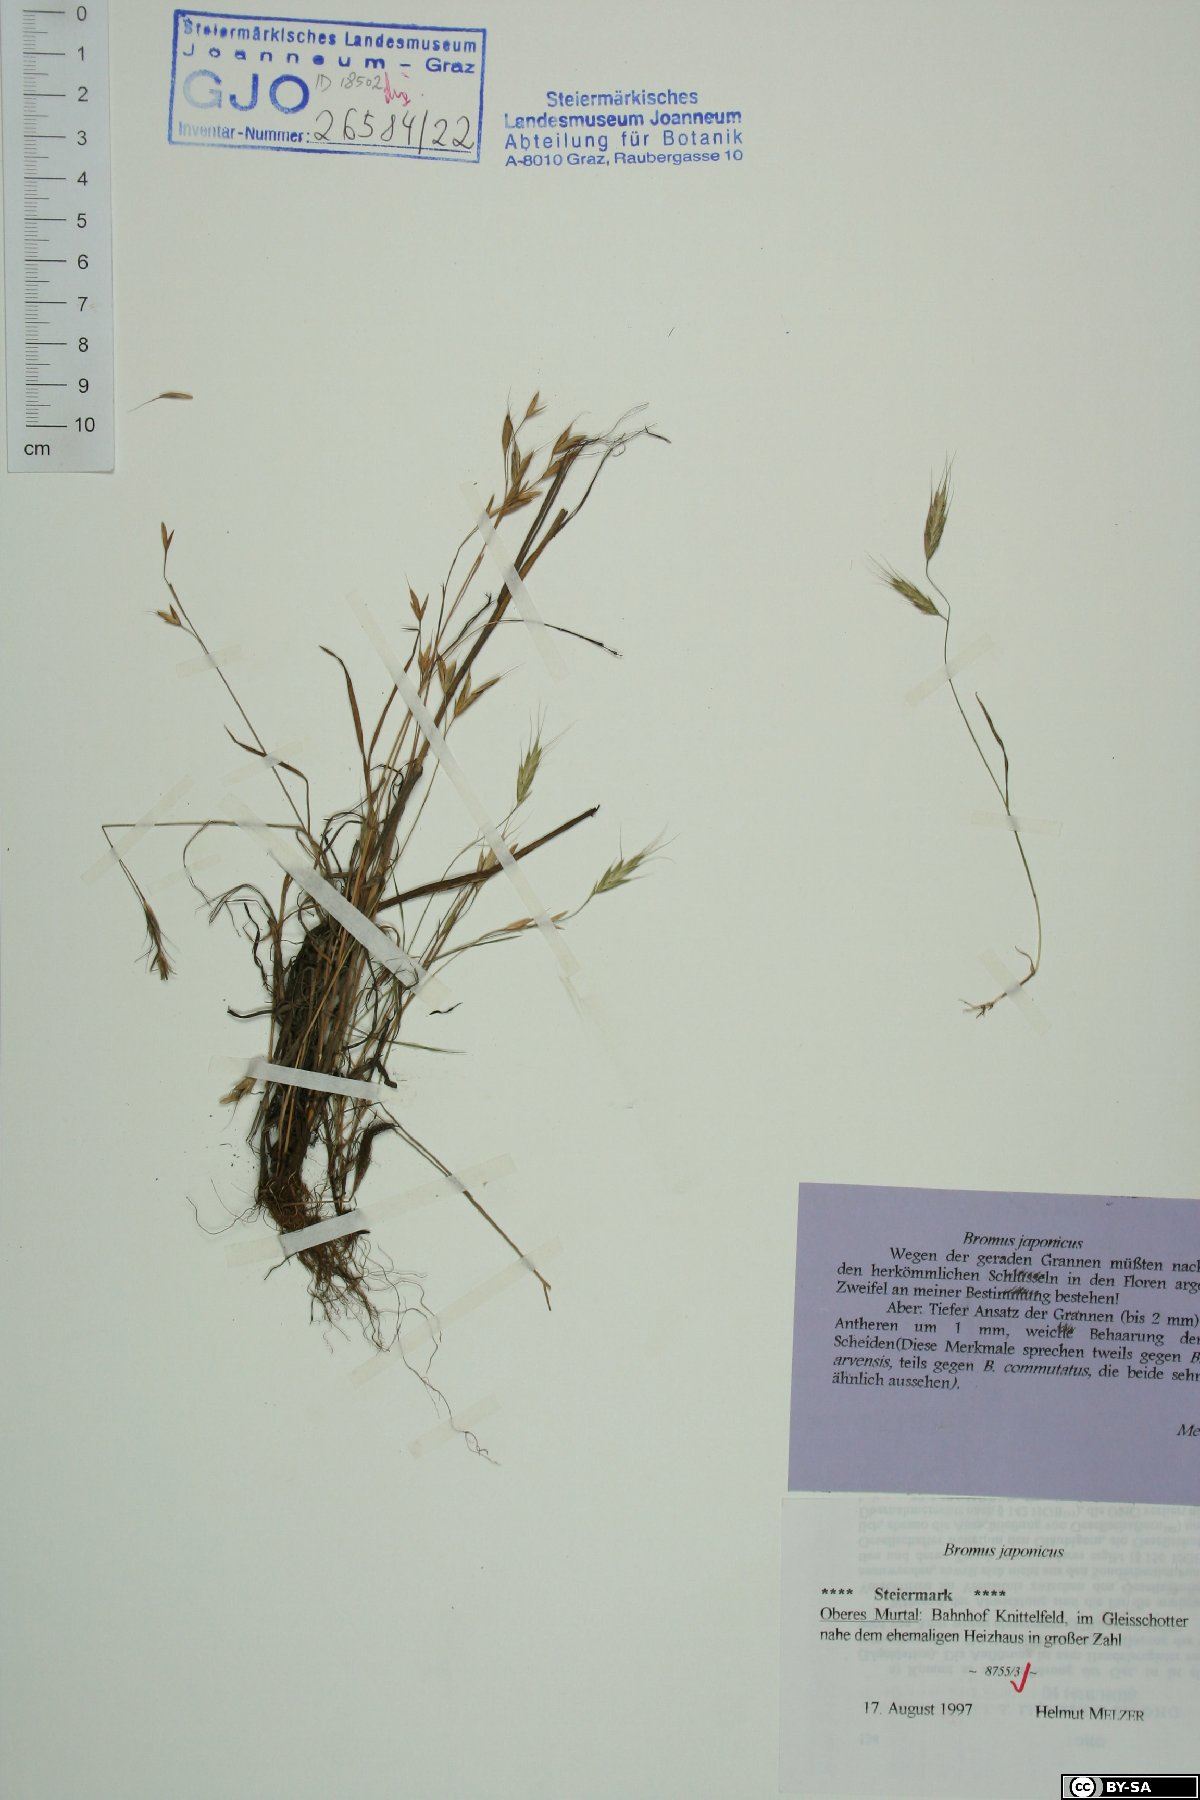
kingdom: Plantae
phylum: Tracheophyta
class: Liliopsida
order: Poales
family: Poaceae
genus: Bromus
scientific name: Bromus japonicus
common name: Japanese brome
